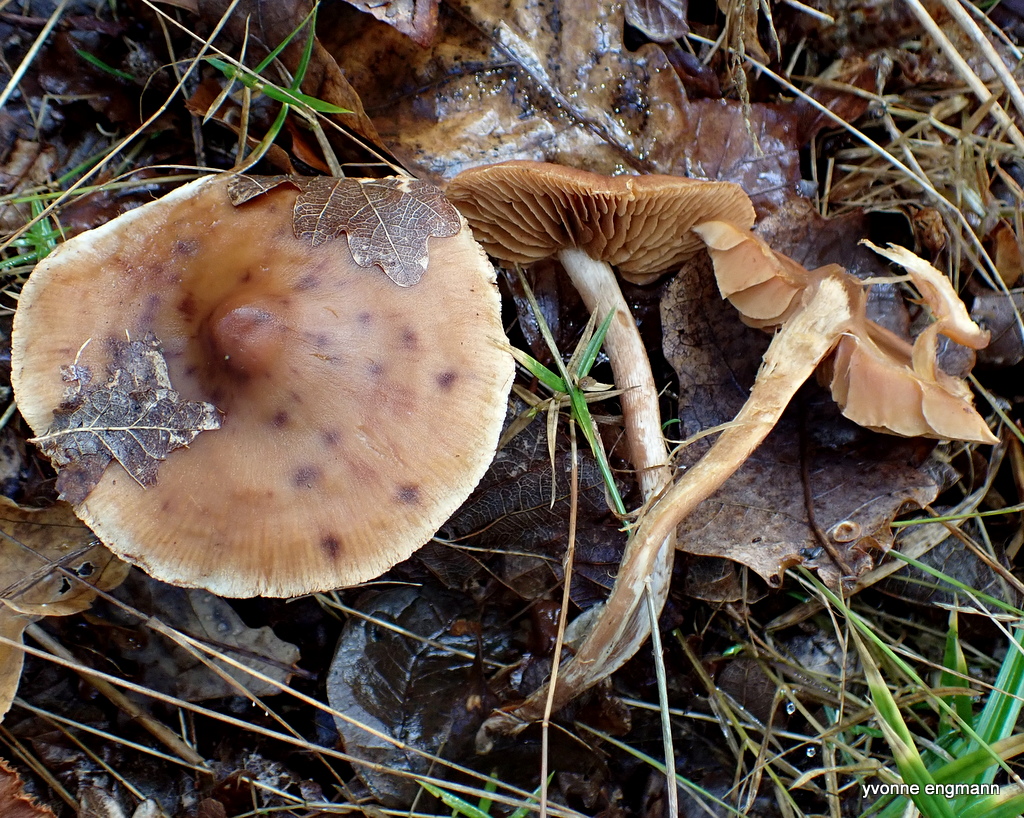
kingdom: Fungi
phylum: Basidiomycota
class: Agaricomycetes
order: Agaricales
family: Cortinariaceae
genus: Cortinarius
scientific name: Cortinarius
